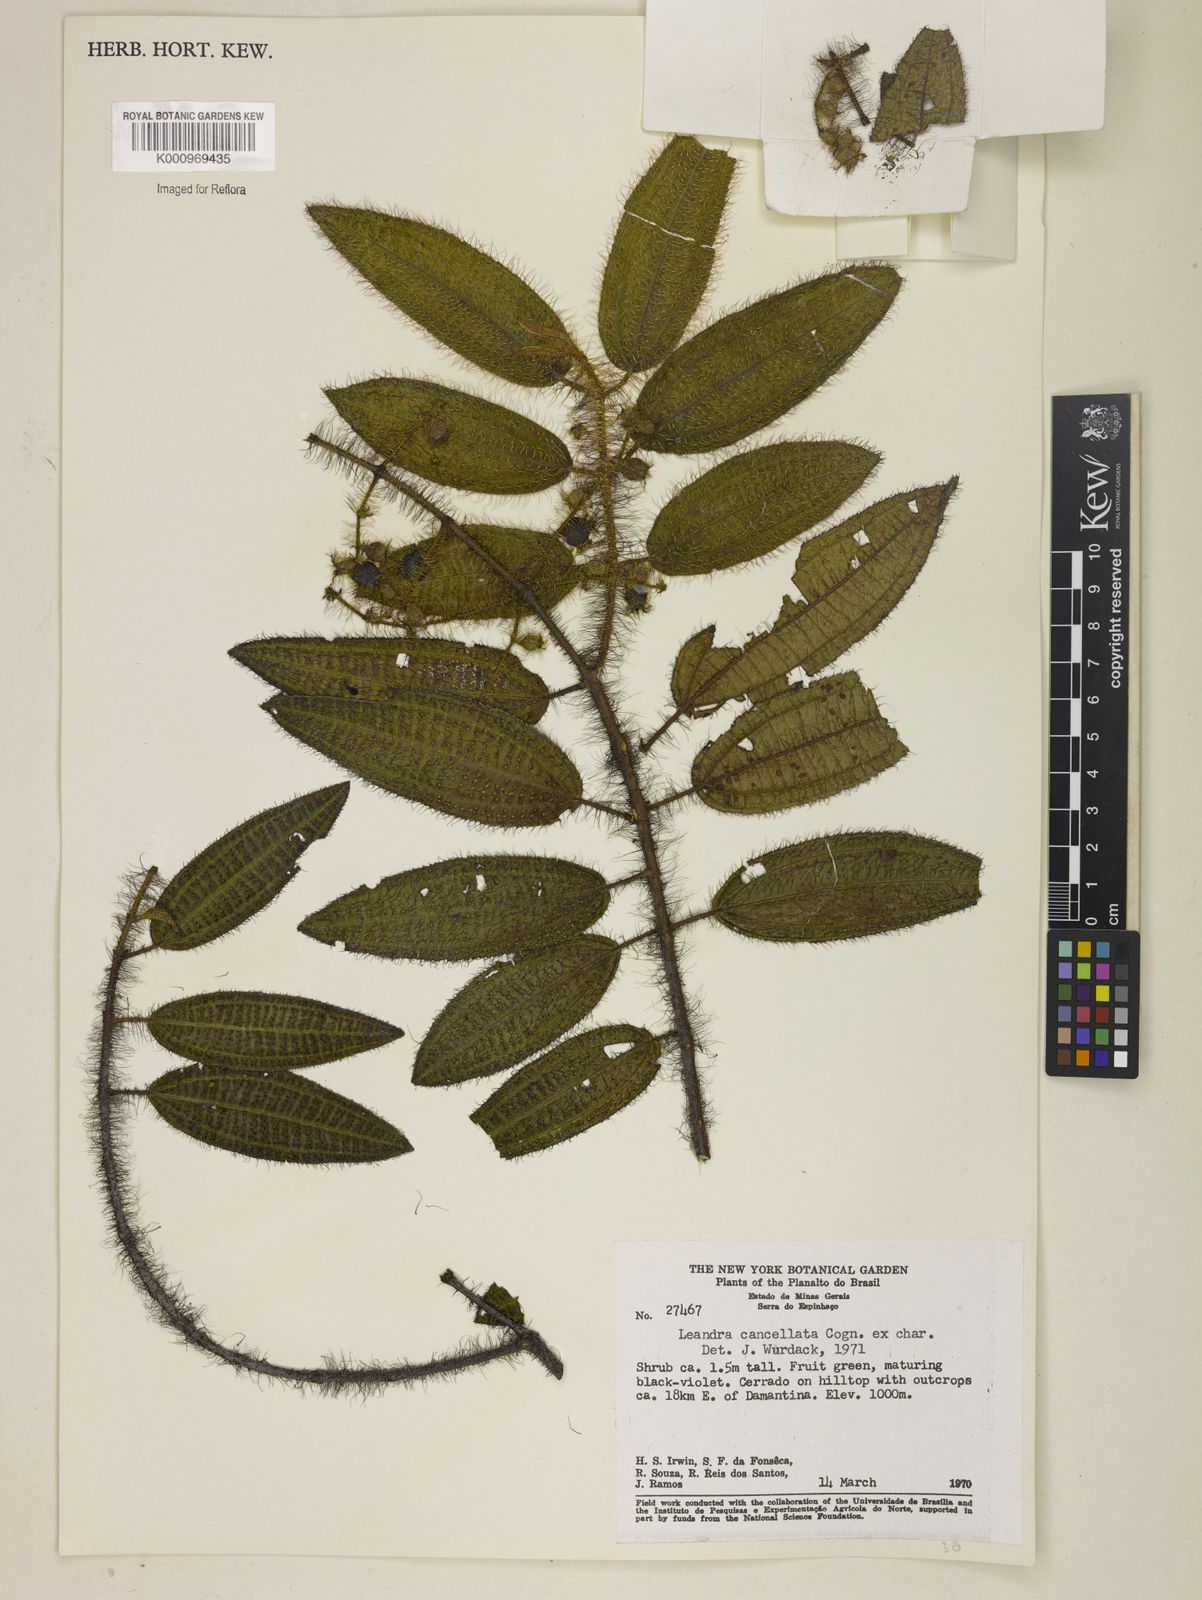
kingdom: Plantae
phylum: Tracheophyta
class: Magnoliopsida
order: Myrtales
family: Melastomataceae
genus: Miconia
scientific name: Miconia cancellata
